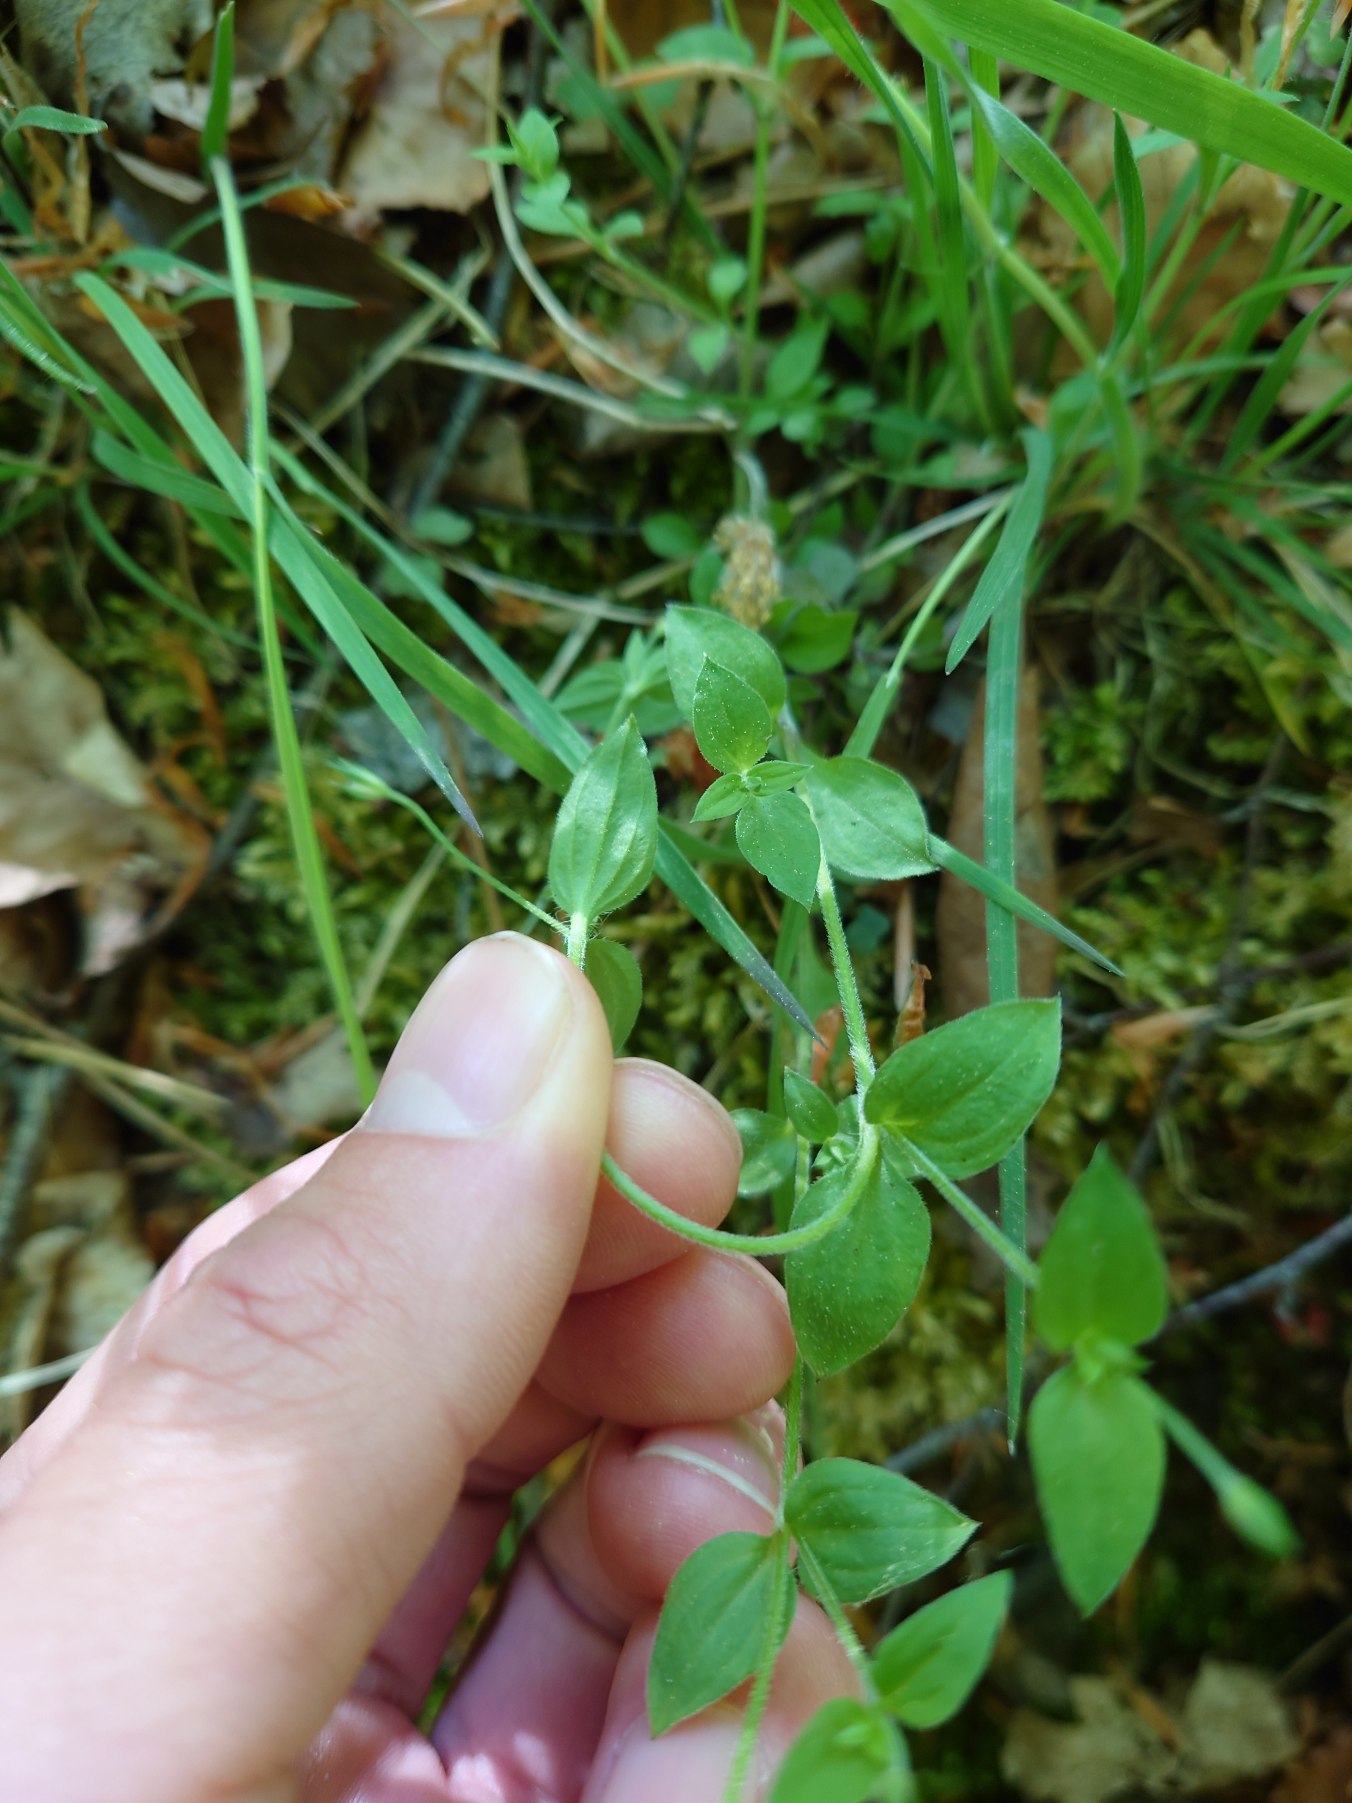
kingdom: Plantae
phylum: Tracheophyta
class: Magnoliopsida
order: Caryophyllales
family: Caryophyllaceae
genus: Moehringia
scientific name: Moehringia trinervia
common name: Skovarve
